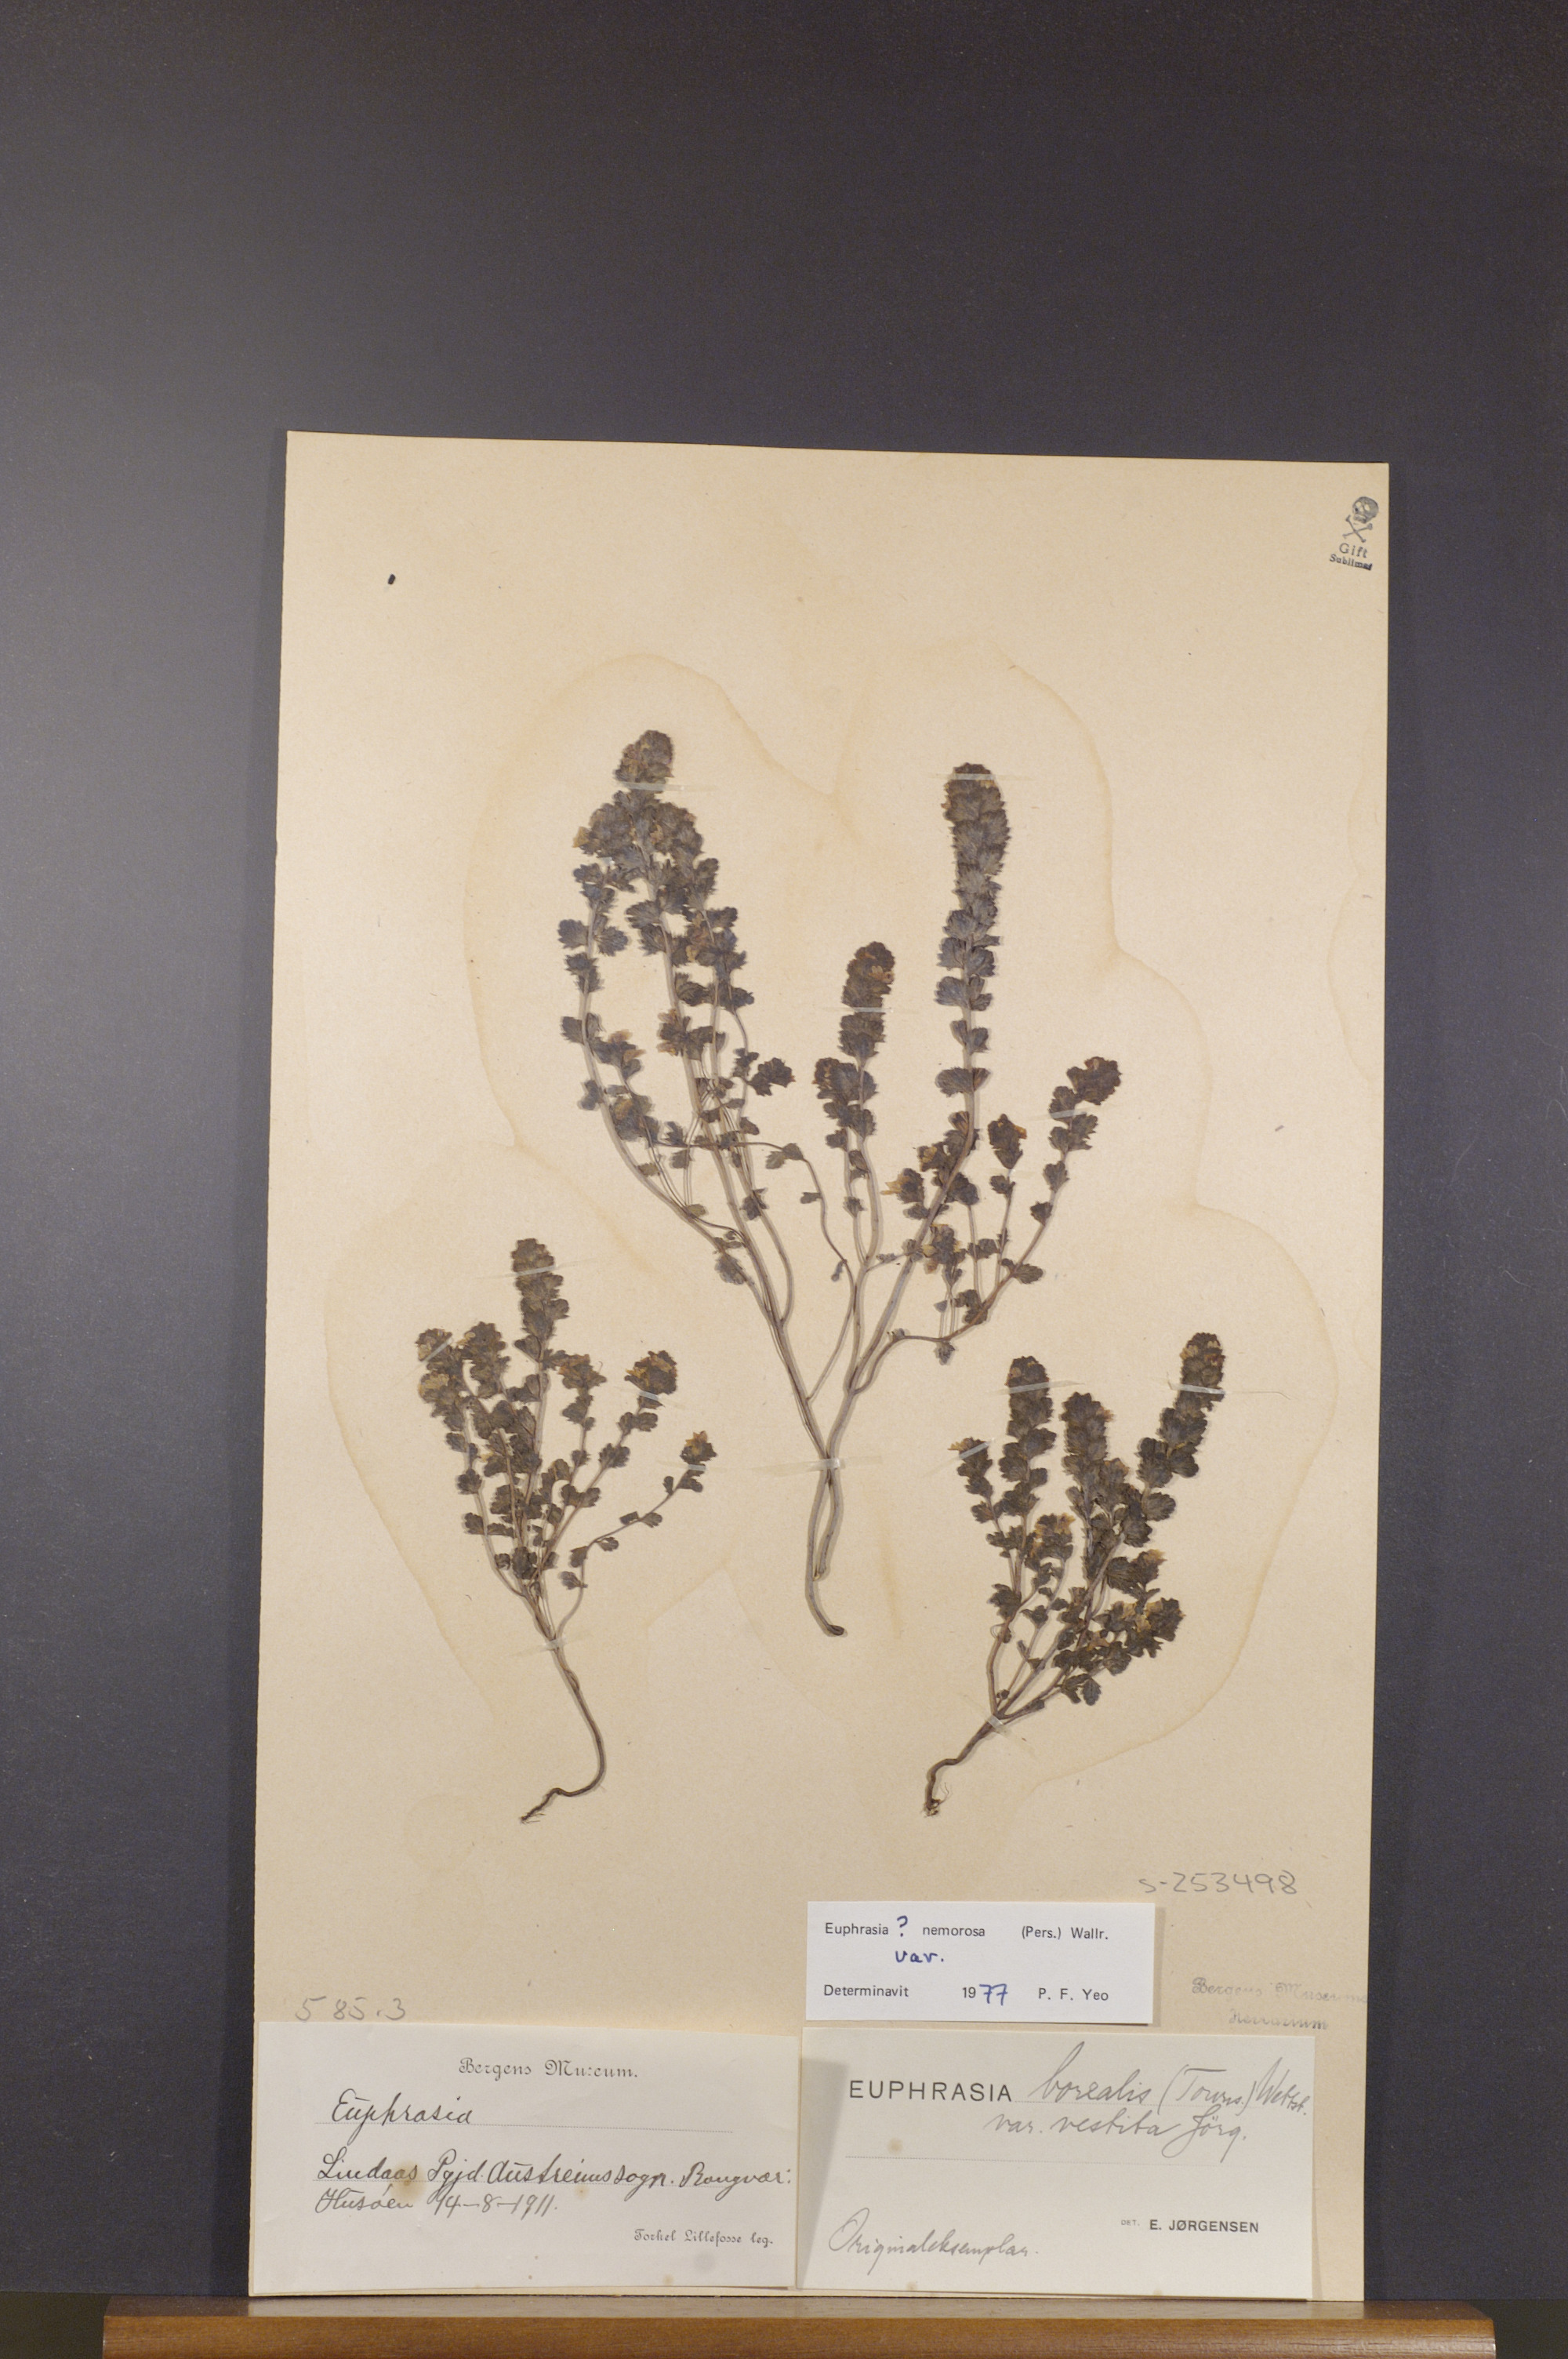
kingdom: Plantae
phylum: Tracheophyta
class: Magnoliopsida
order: Lamiales
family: Orobanchaceae
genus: Euphrasia
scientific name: Euphrasia nemorosa
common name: Common eyebright
